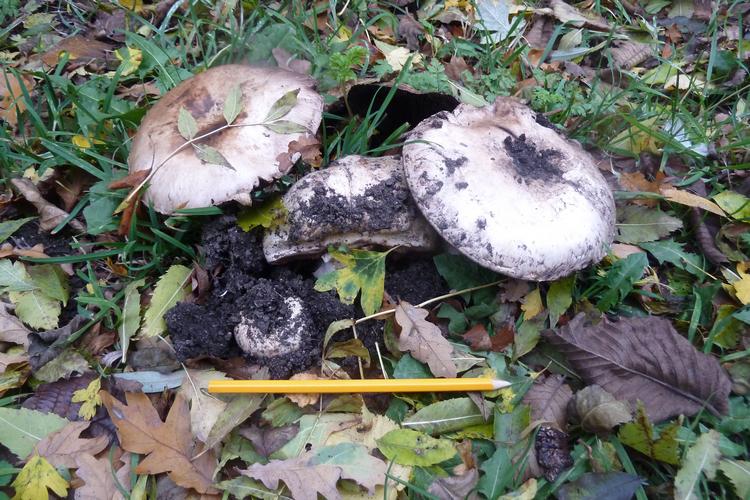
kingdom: Fungi
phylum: Basidiomycota
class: Agaricomycetes
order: Agaricales
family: Agaricaceae
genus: Agaricus
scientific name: Agaricus subperonatus
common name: knippe-champignon
